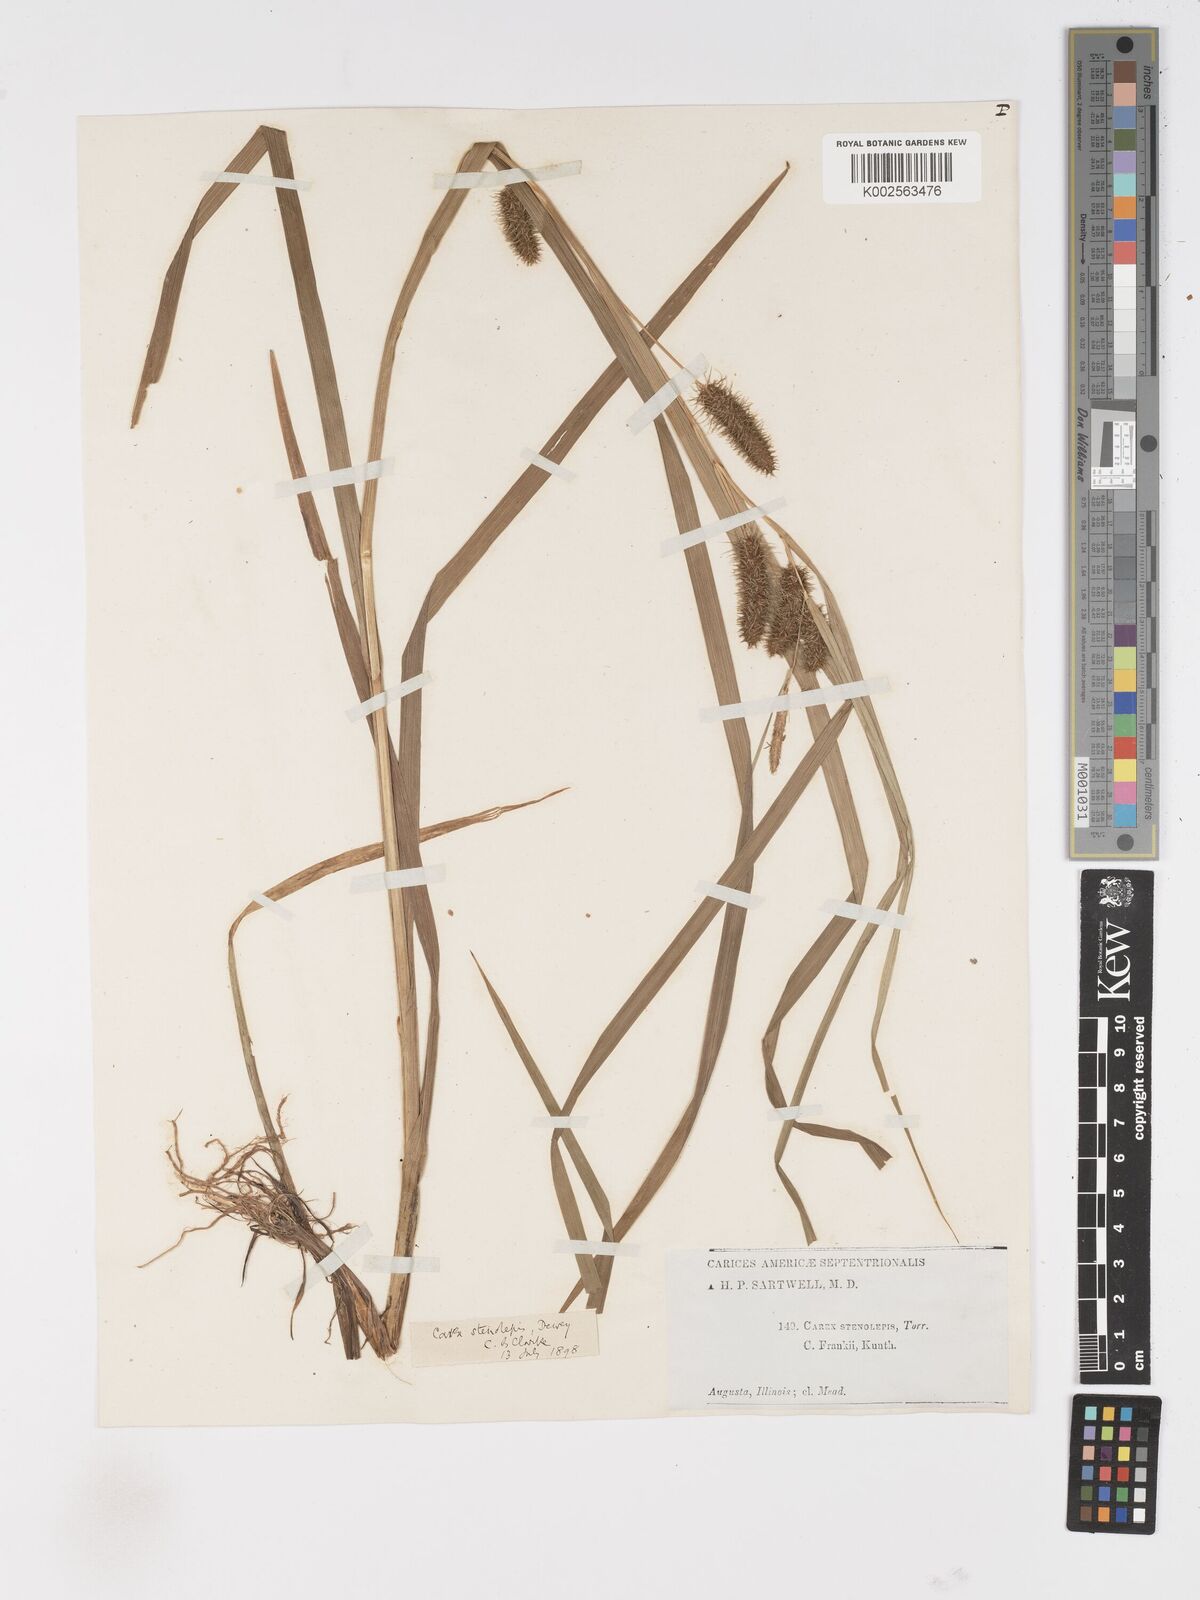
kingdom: Plantae
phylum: Tracheophyta
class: Liliopsida
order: Poales
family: Cyperaceae
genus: Carex
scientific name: Carex frankii
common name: Frank's sedge
